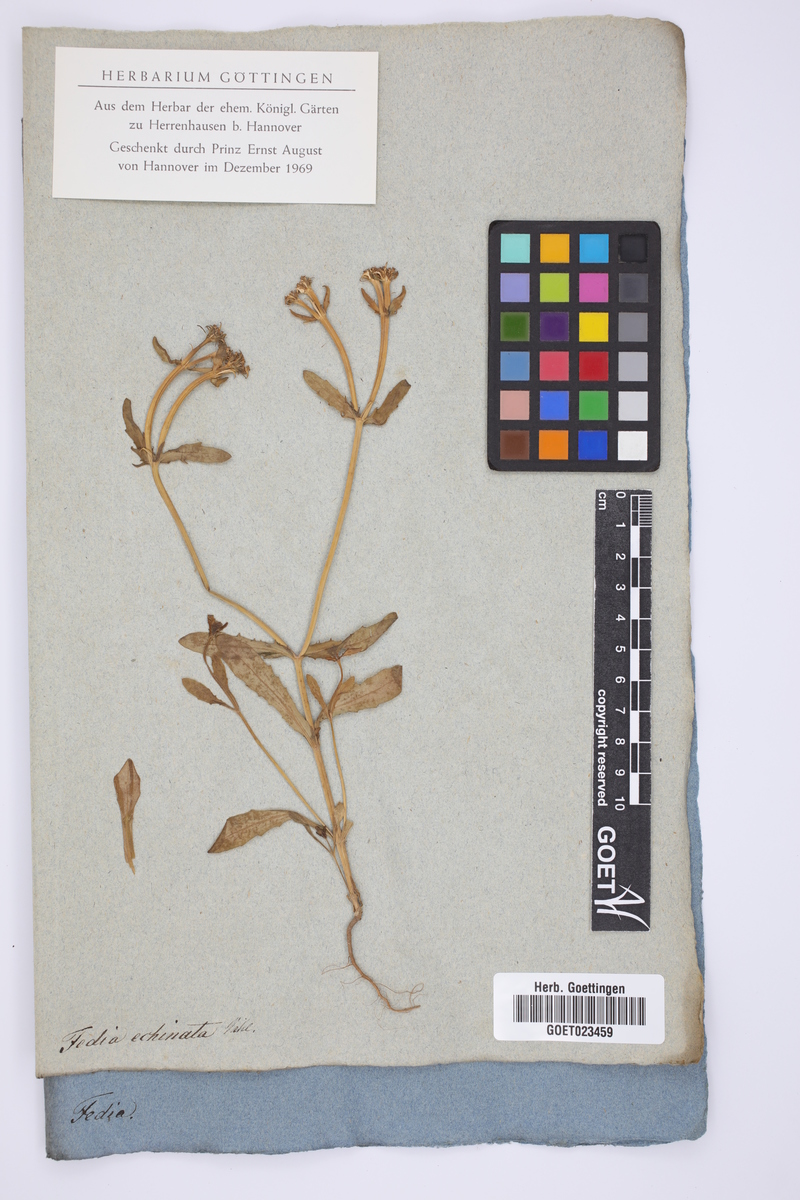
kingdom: Plantae
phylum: Tracheophyta
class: Magnoliopsida
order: Dipsacales
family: Caprifoliaceae
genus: Valerianella
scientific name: Valerianella echinata
